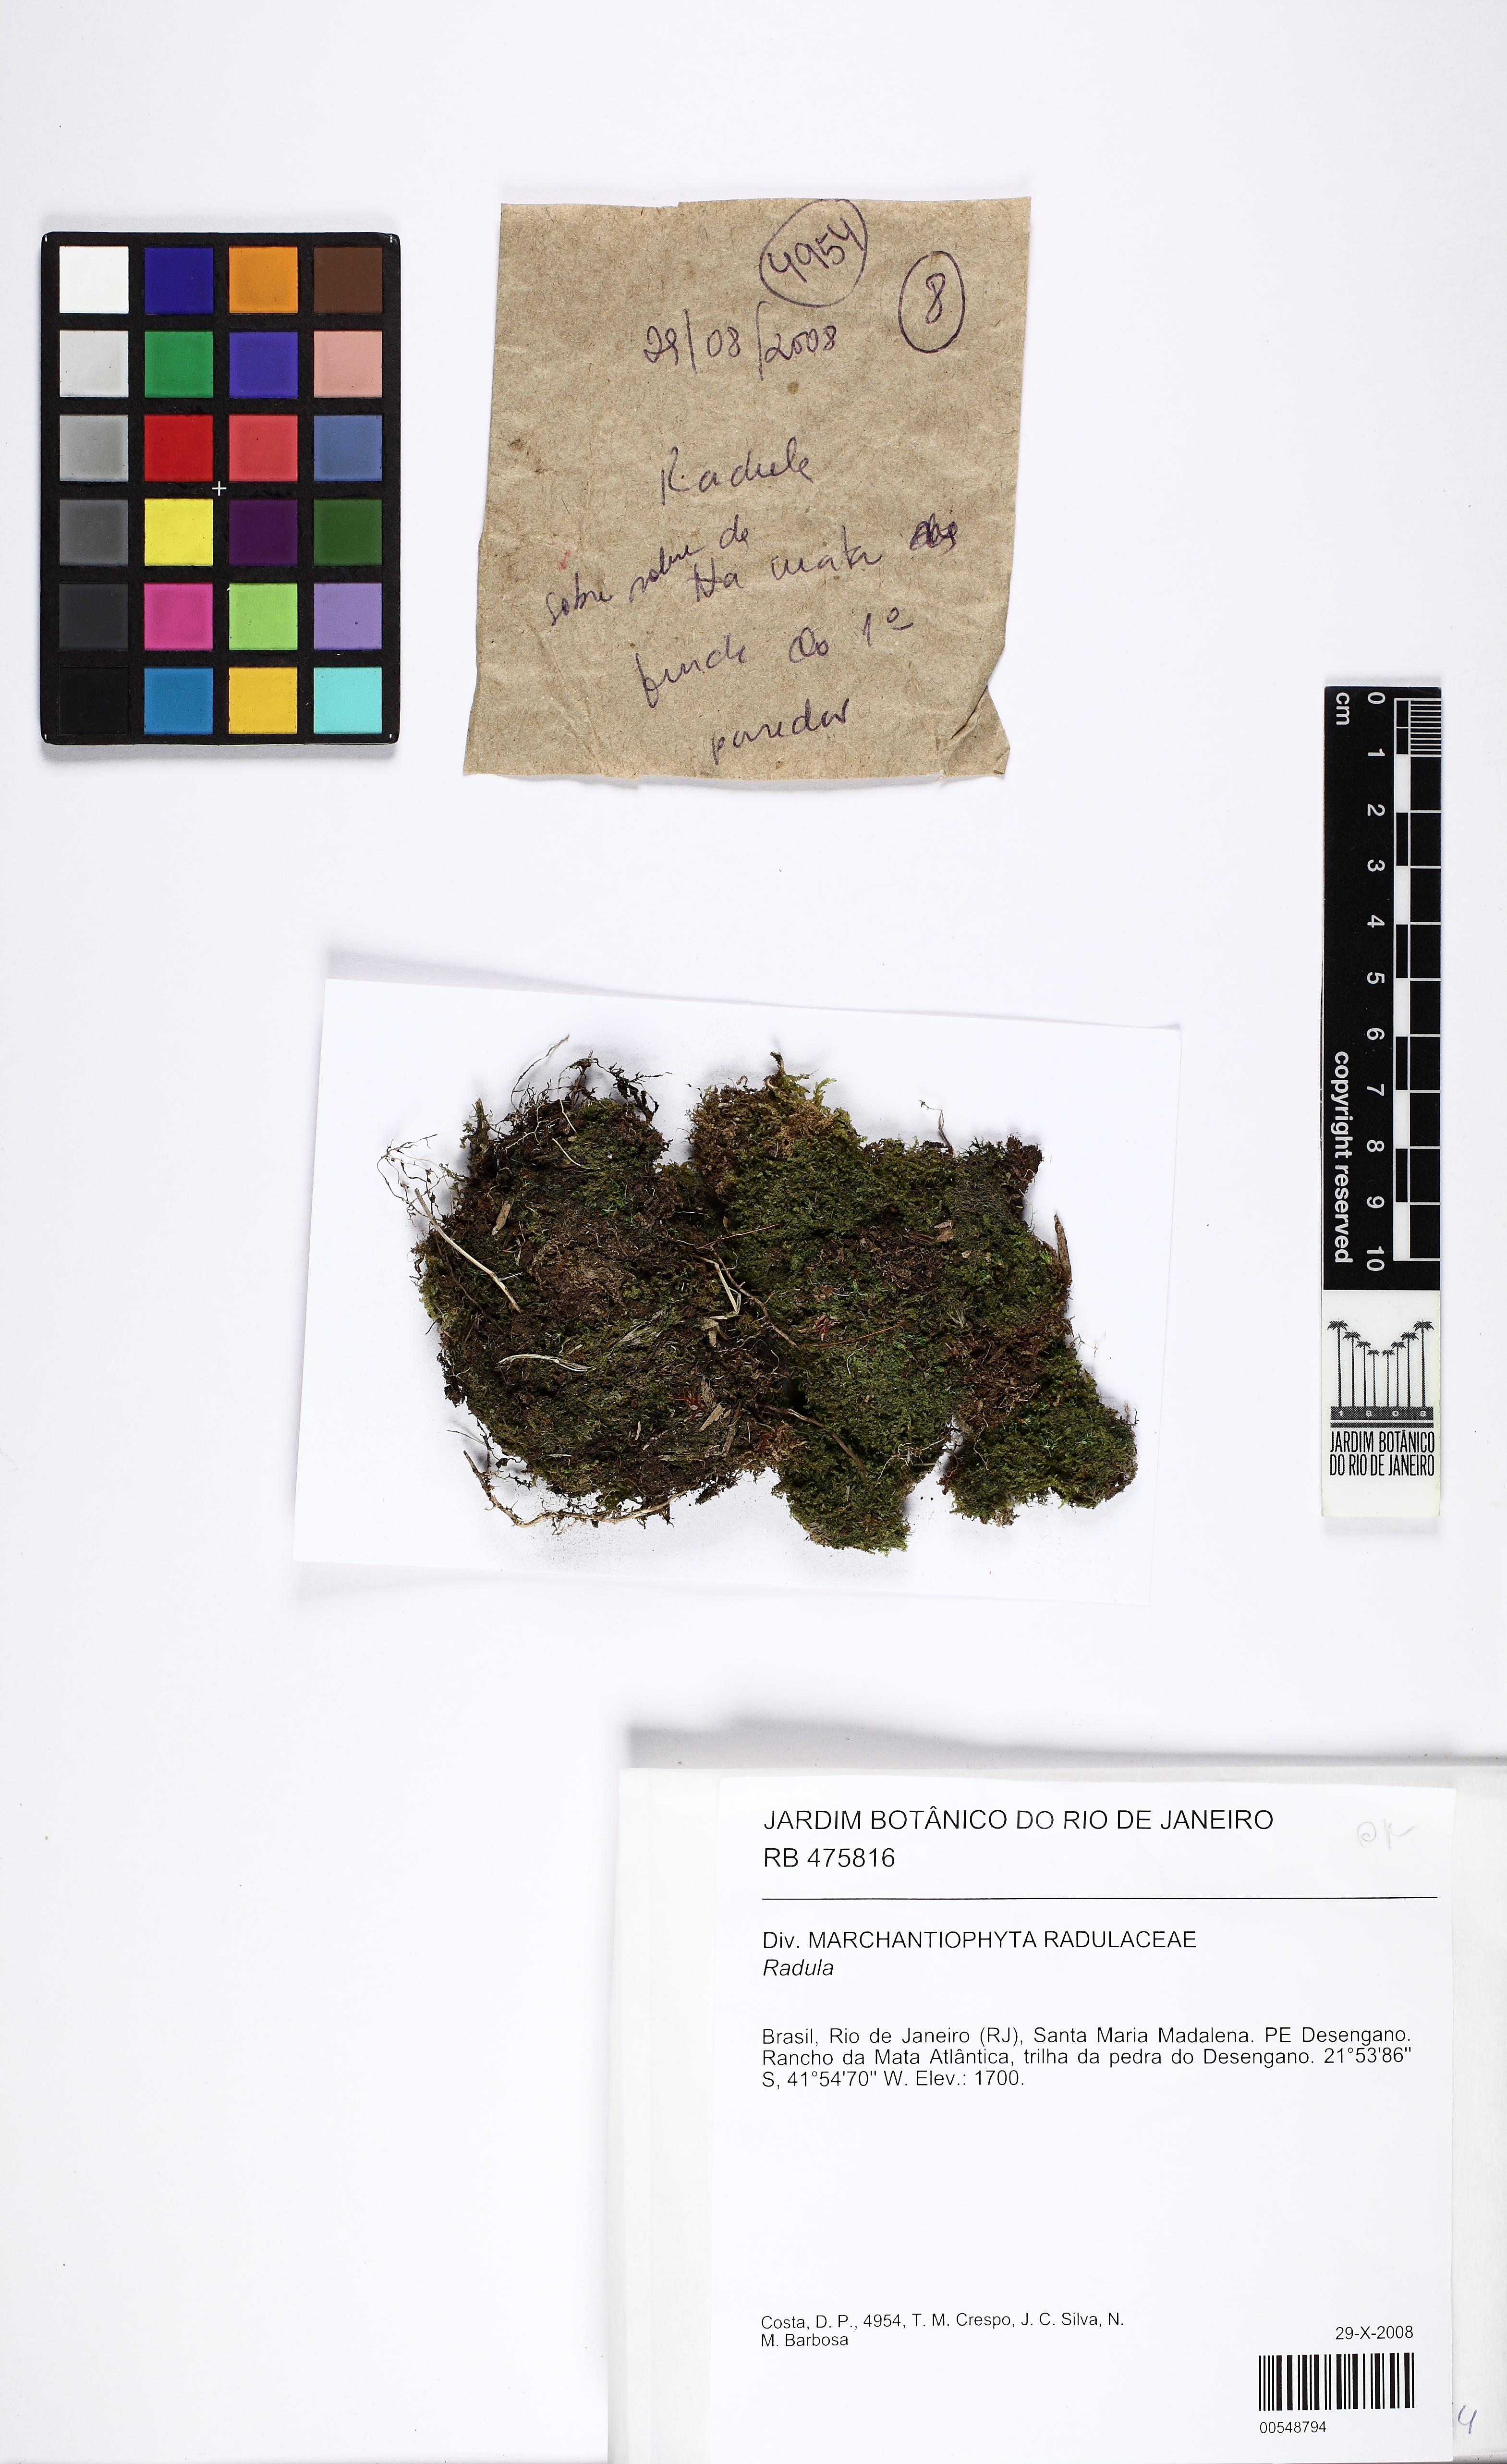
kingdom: Plantae
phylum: Marchantiophyta
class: Jungermanniopsida
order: Porellales
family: Radulaceae
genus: Radula
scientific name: Radula pocsii
